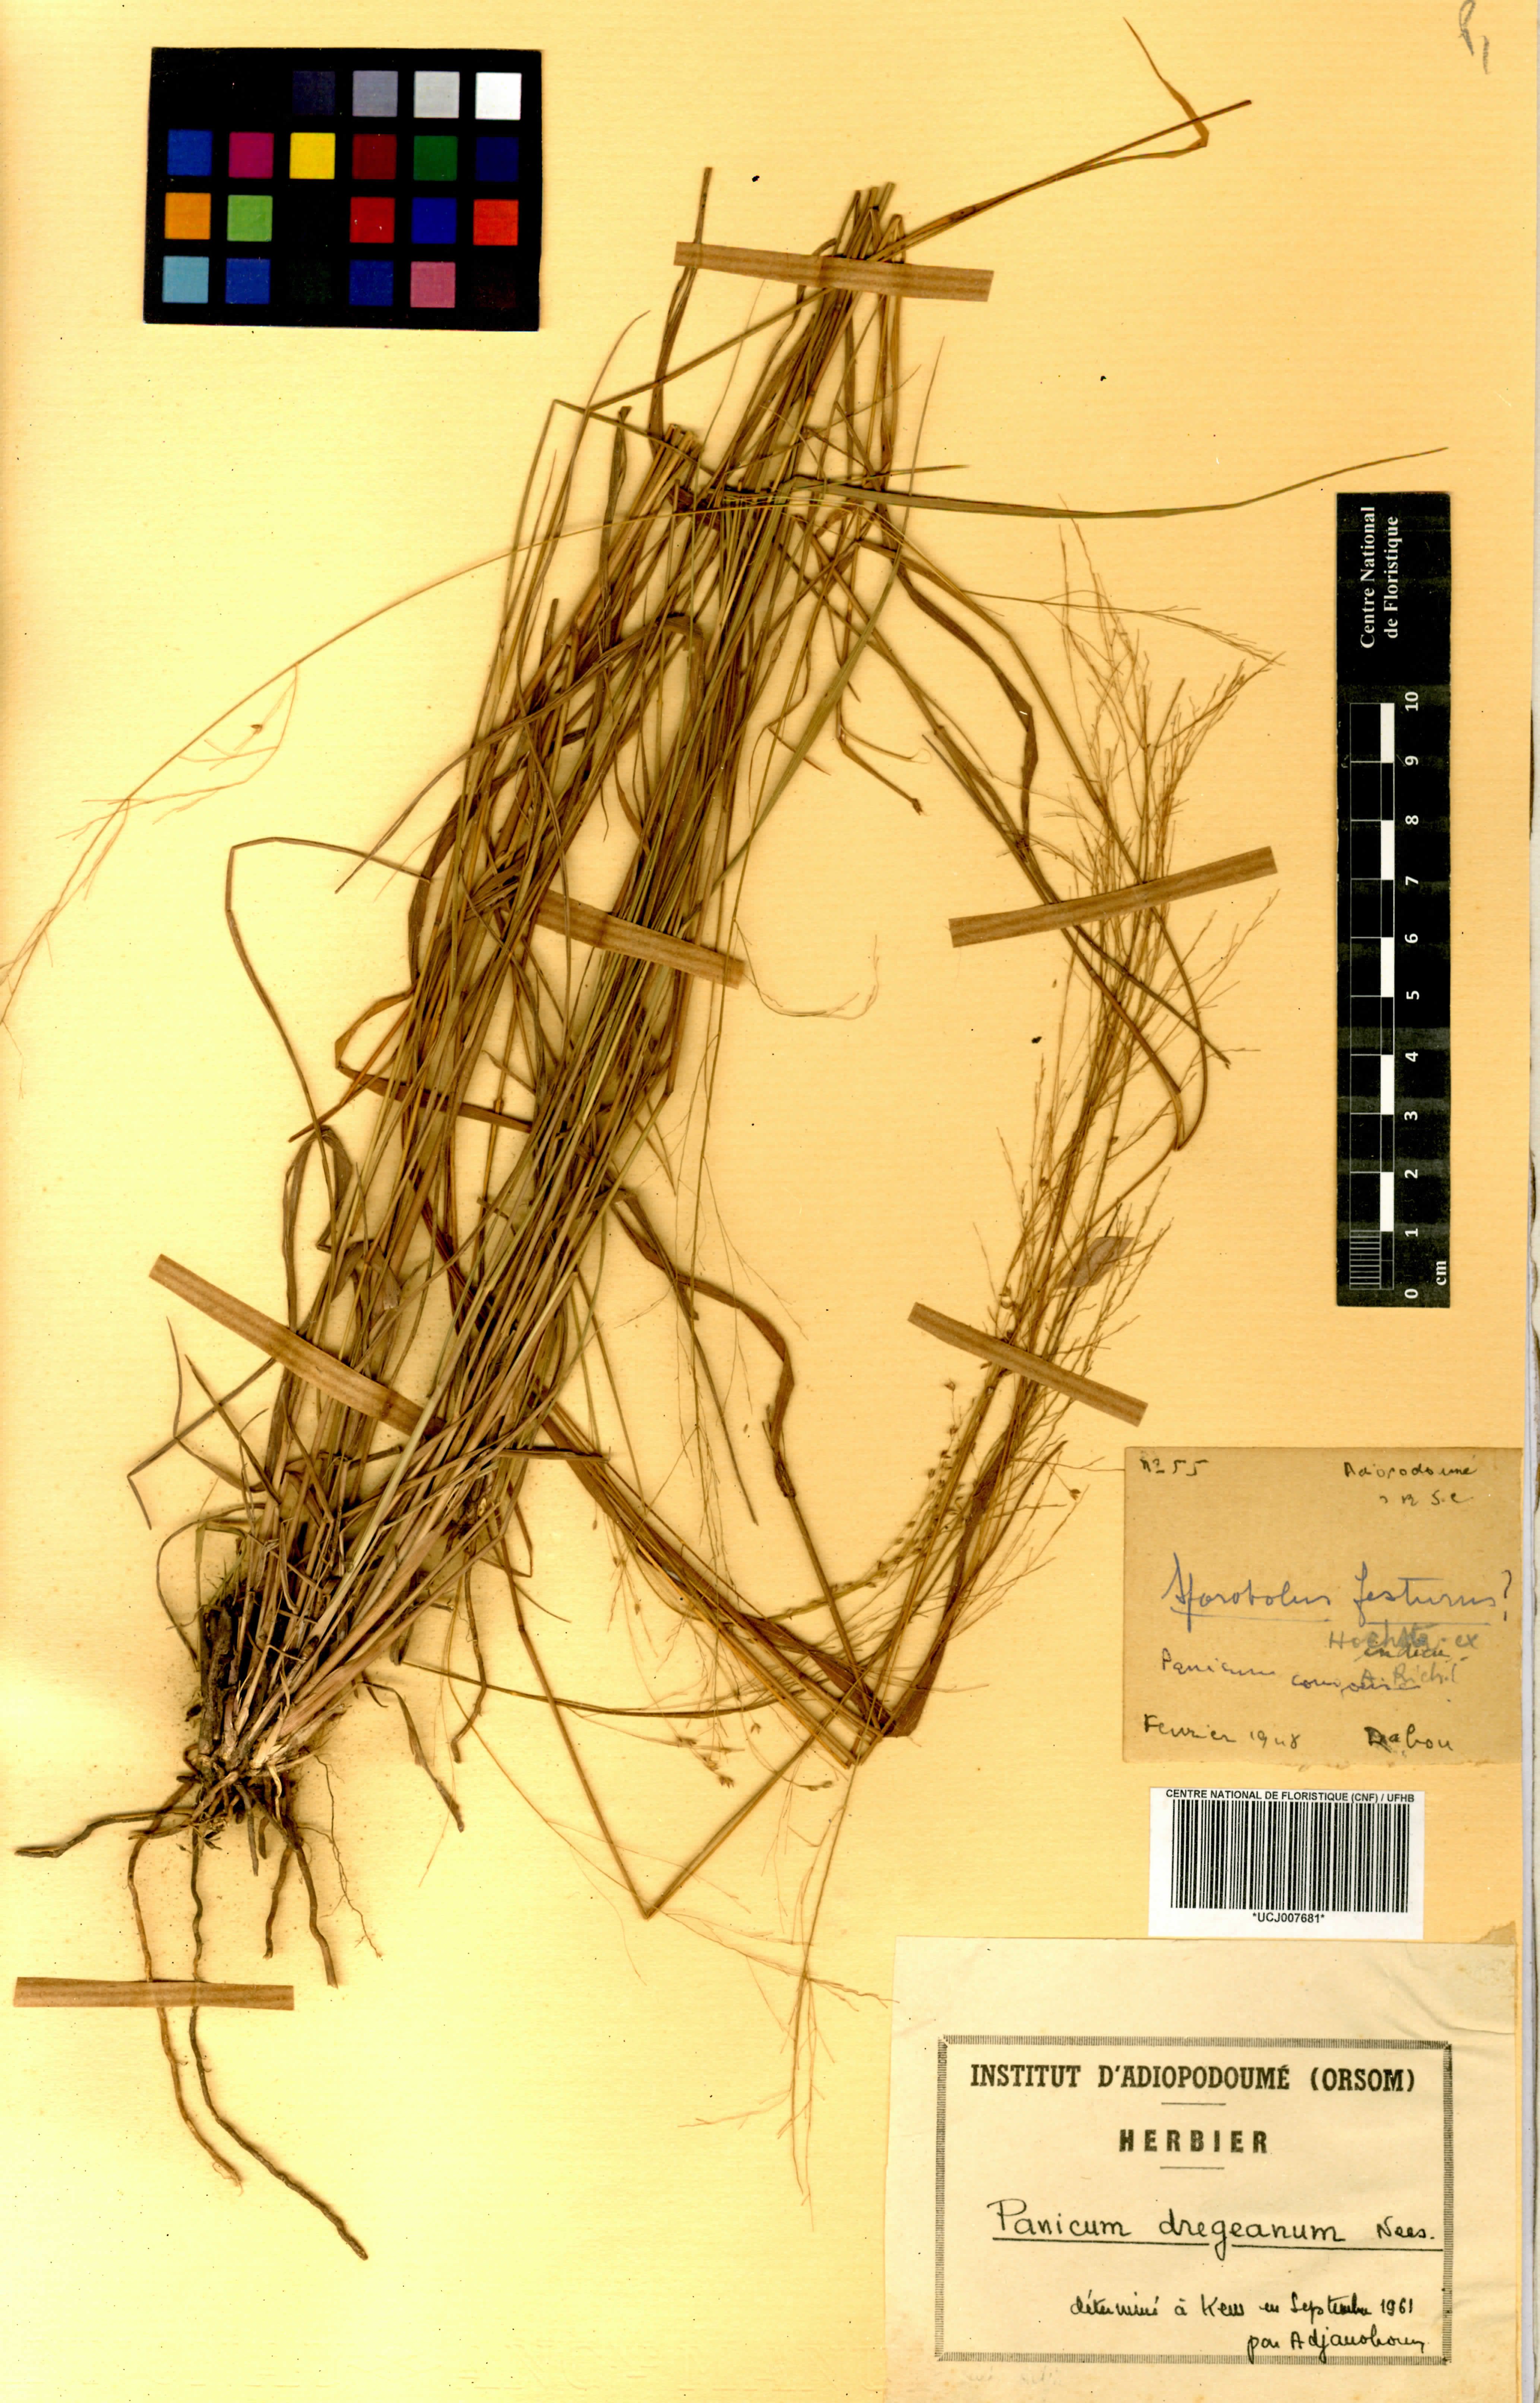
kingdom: Plantae
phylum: Tracheophyta
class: Liliopsida
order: Poales
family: Poaceae
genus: Panicum
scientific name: Panicum dregeanum
